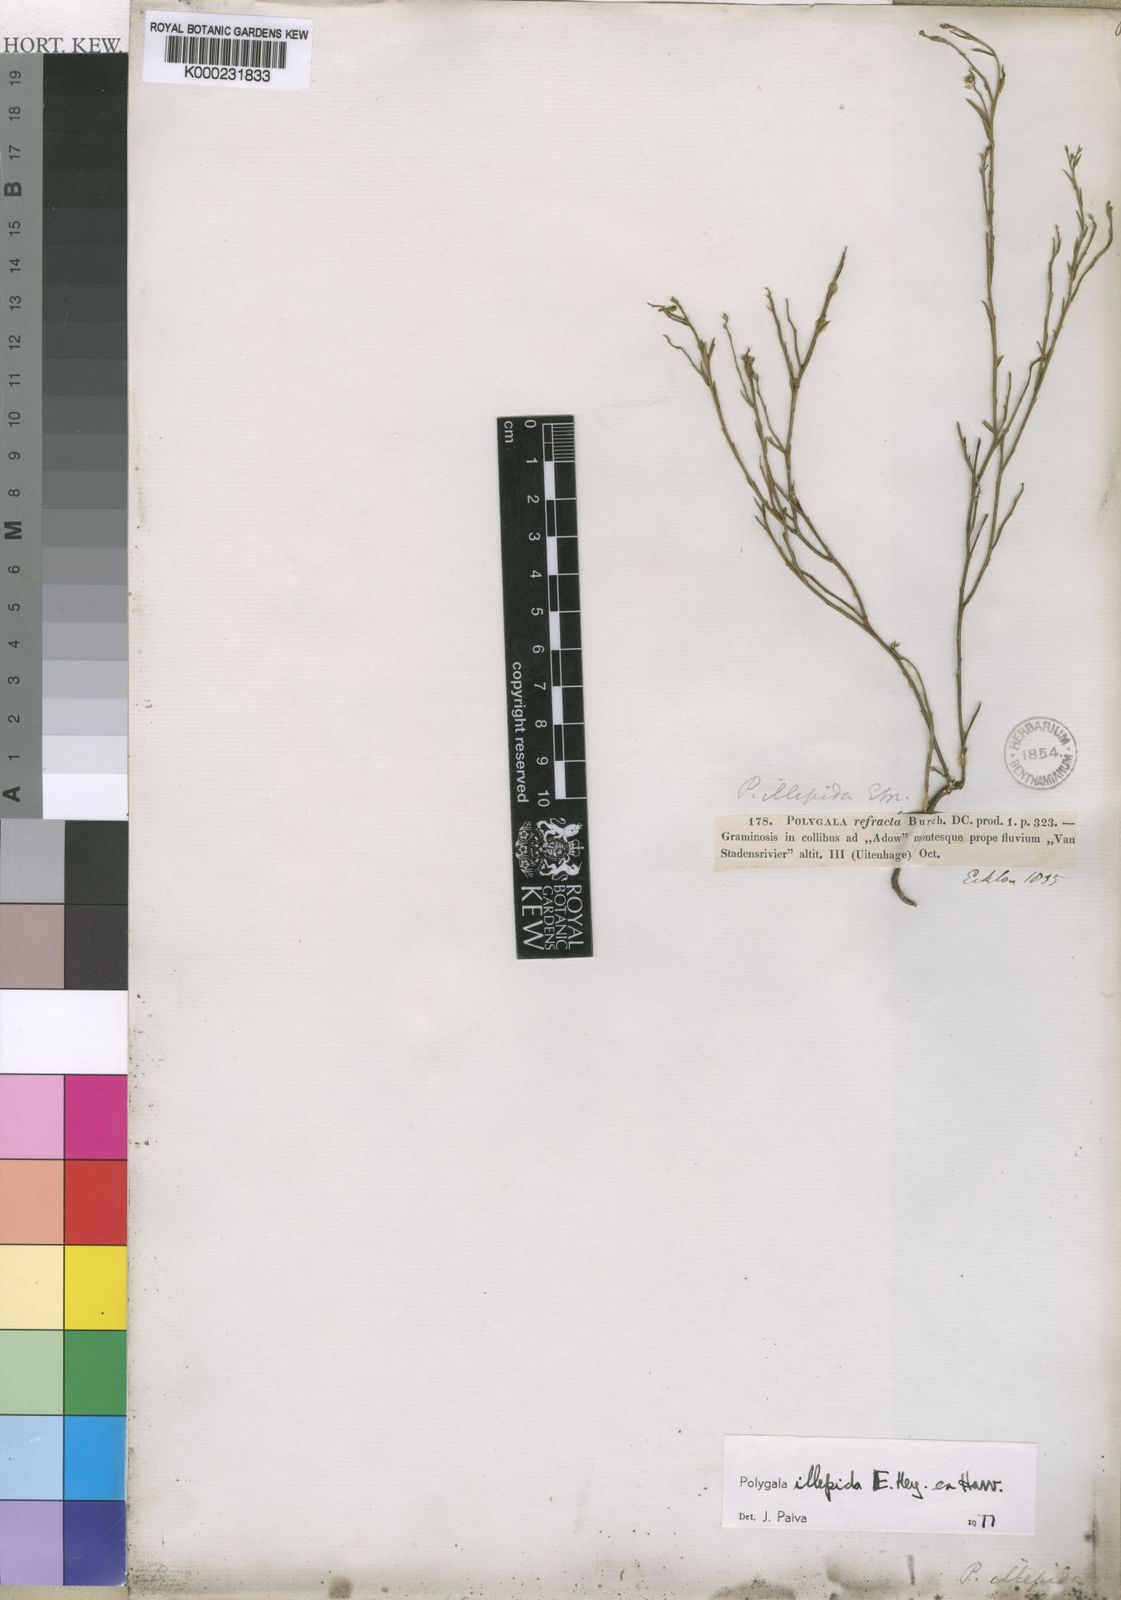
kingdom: Plantae
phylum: Tracheophyta
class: Magnoliopsida
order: Fabales
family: Polygalaceae
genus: Polygala
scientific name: Polygala illepida
